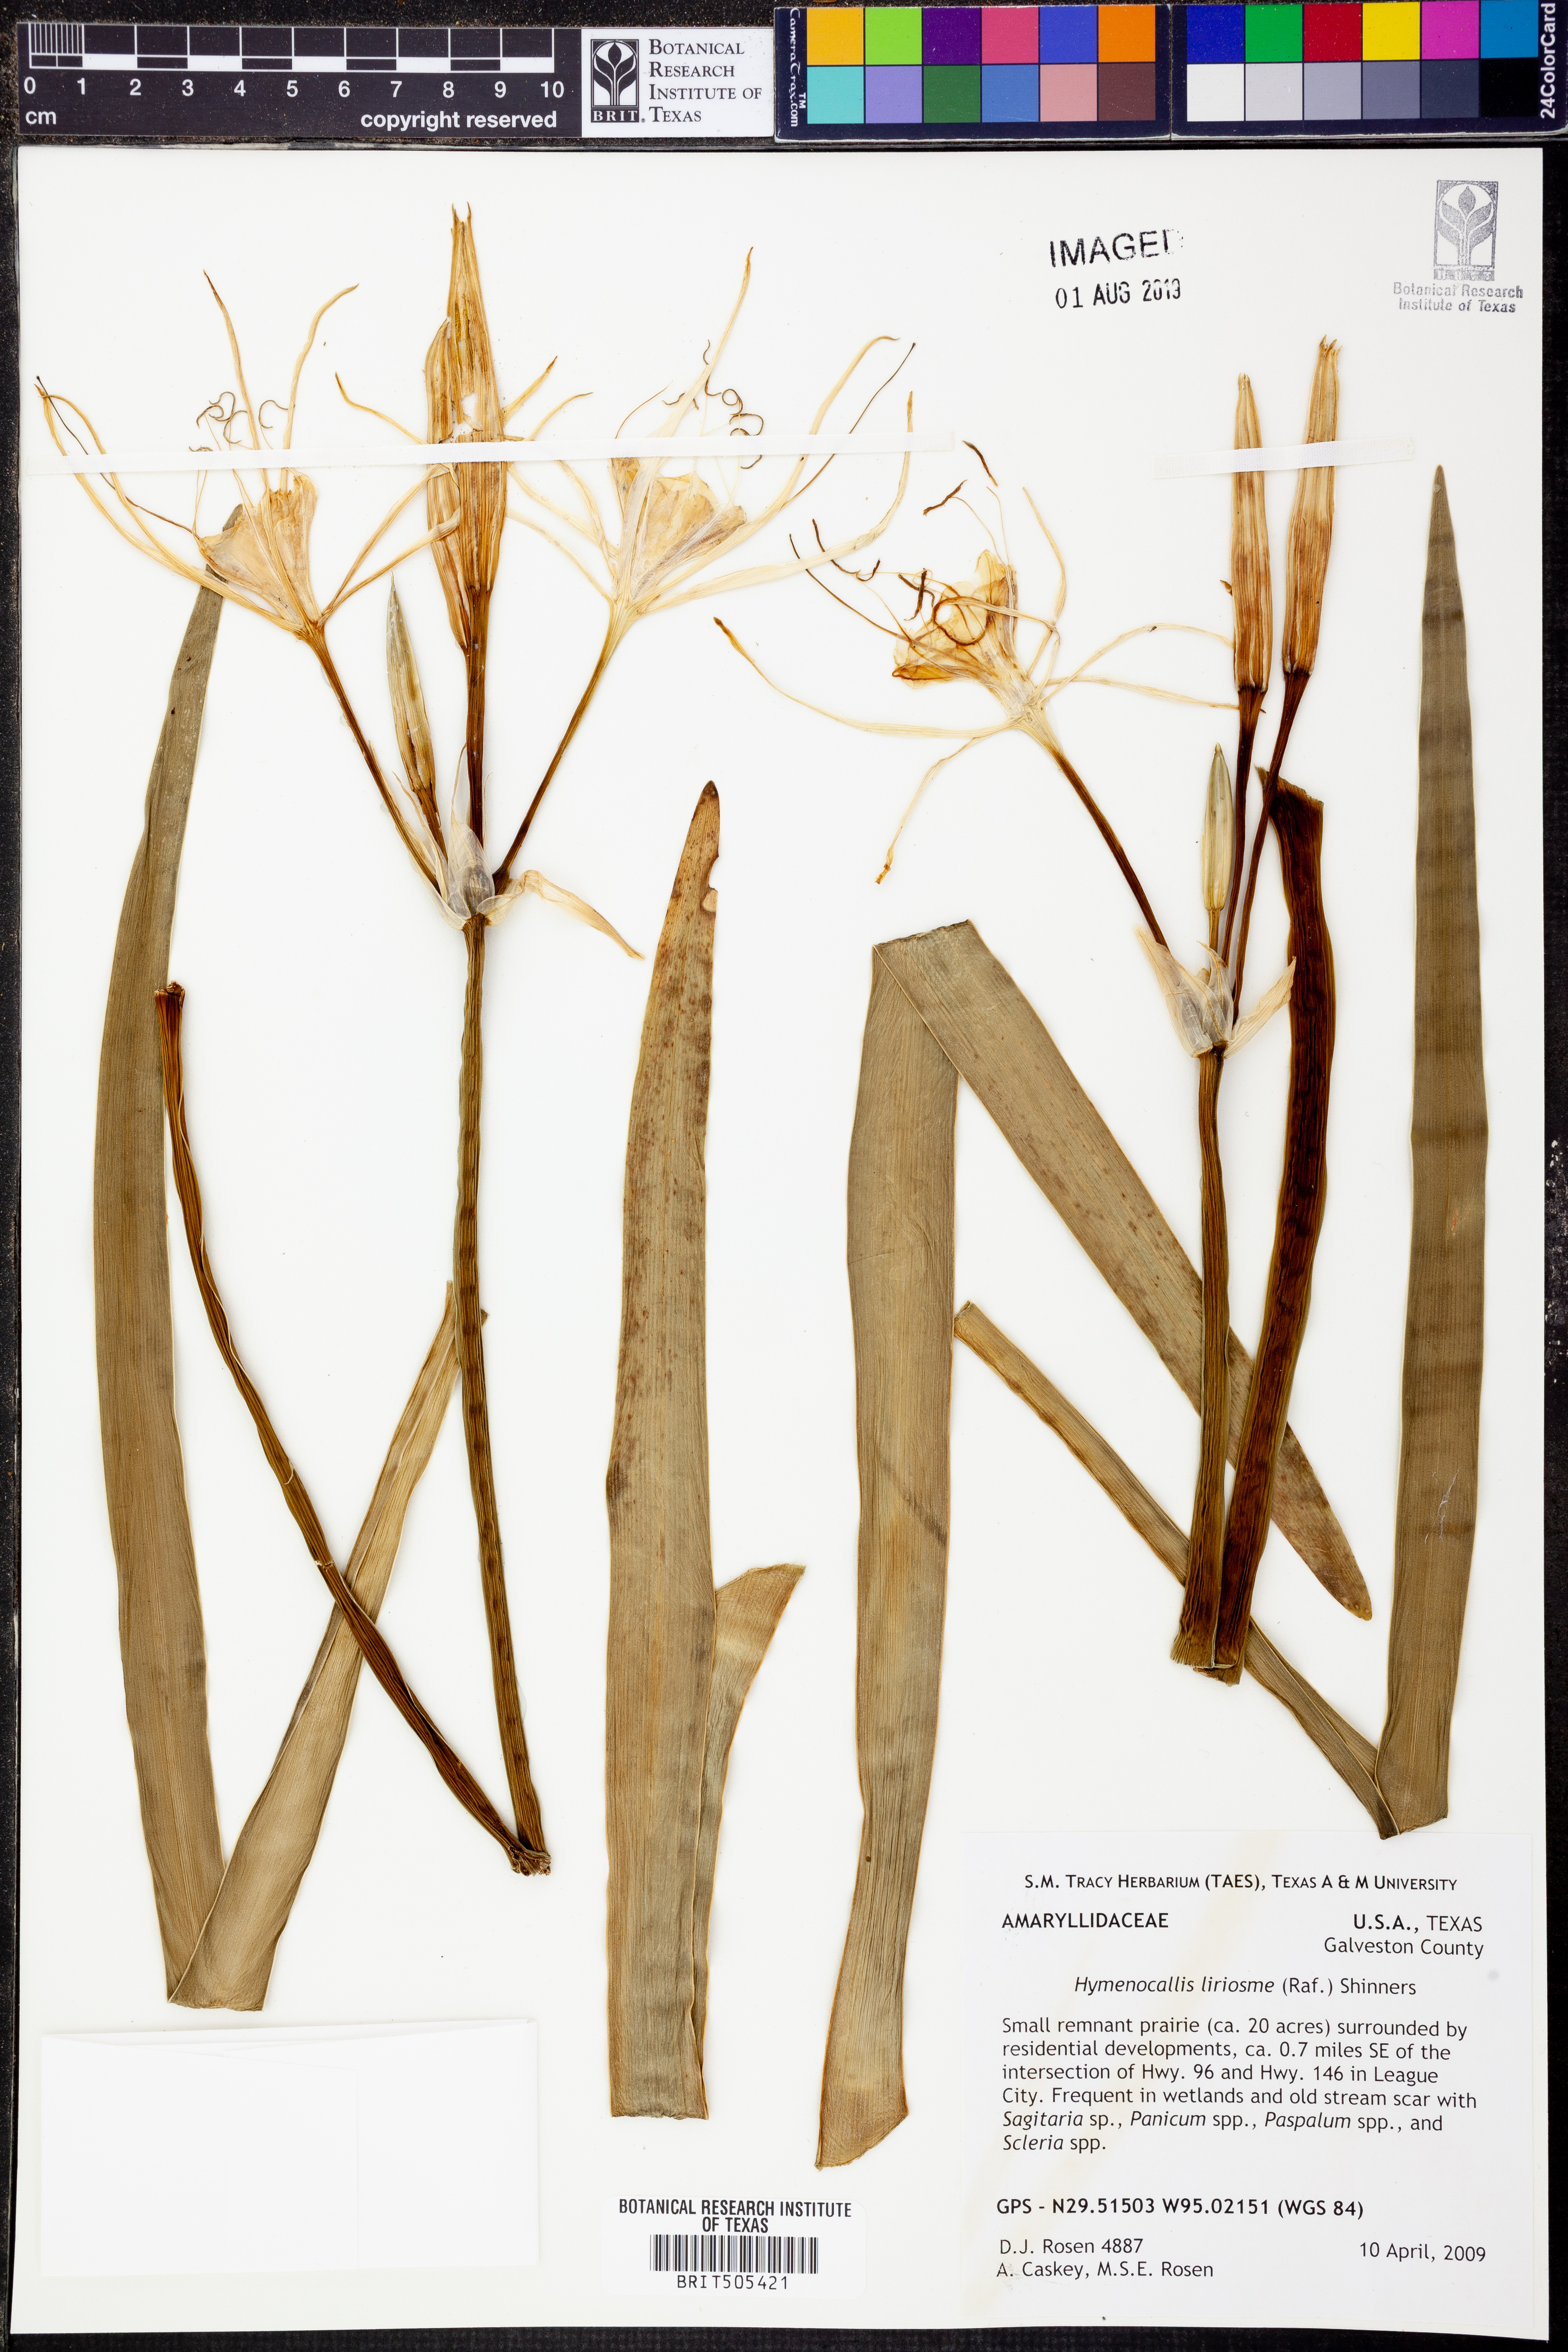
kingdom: Plantae
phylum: Tracheophyta
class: Liliopsida
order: Asparagales
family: Amaryllidaceae
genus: Hymenocallis
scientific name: Hymenocallis liriosme
